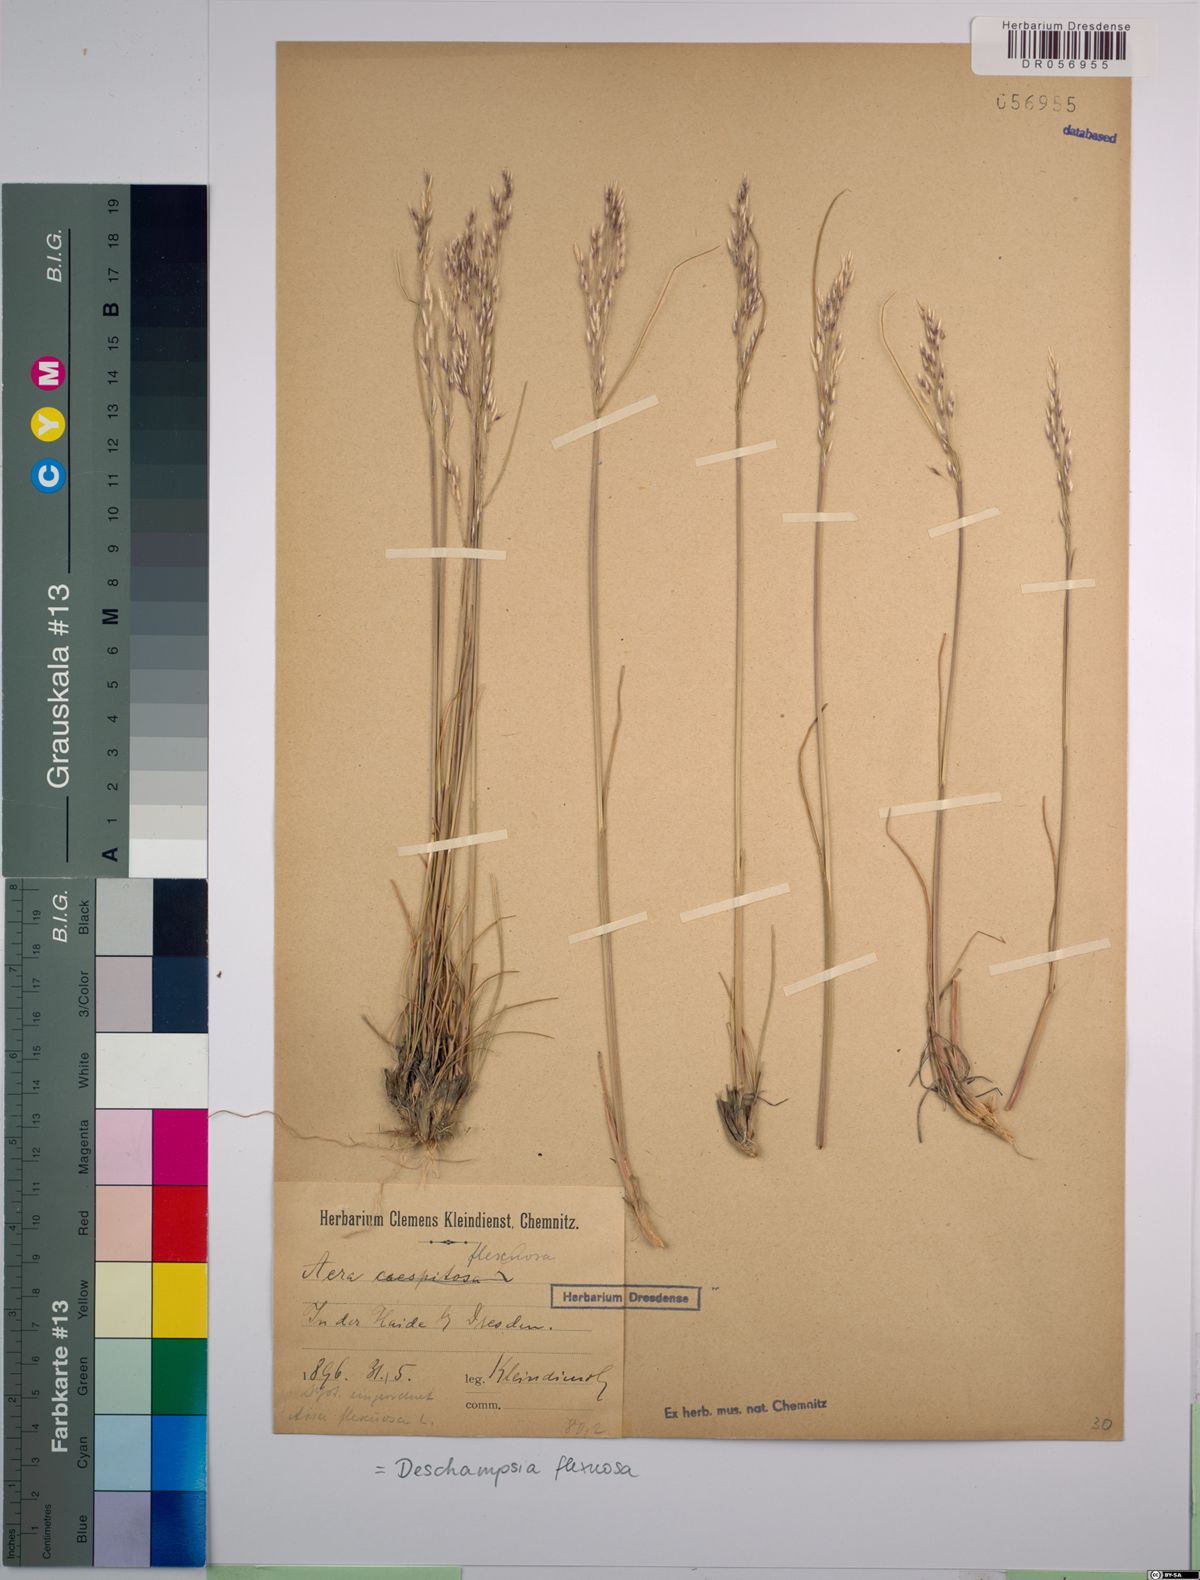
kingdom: Plantae
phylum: Tracheophyta
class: Liliopsida
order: Poales
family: Poaceae
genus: Avenella
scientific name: Avenella flexuosa
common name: Wavy hairgrass
